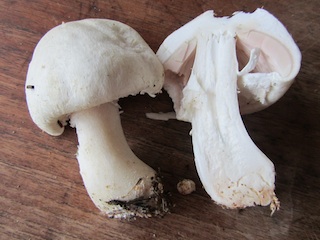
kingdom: Fungi
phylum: Basidiomycota
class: Agaricomycetes
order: Agaricales
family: Agaricaceae
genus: Agaricus
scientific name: Agaricus arvensis
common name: ager-champignon
